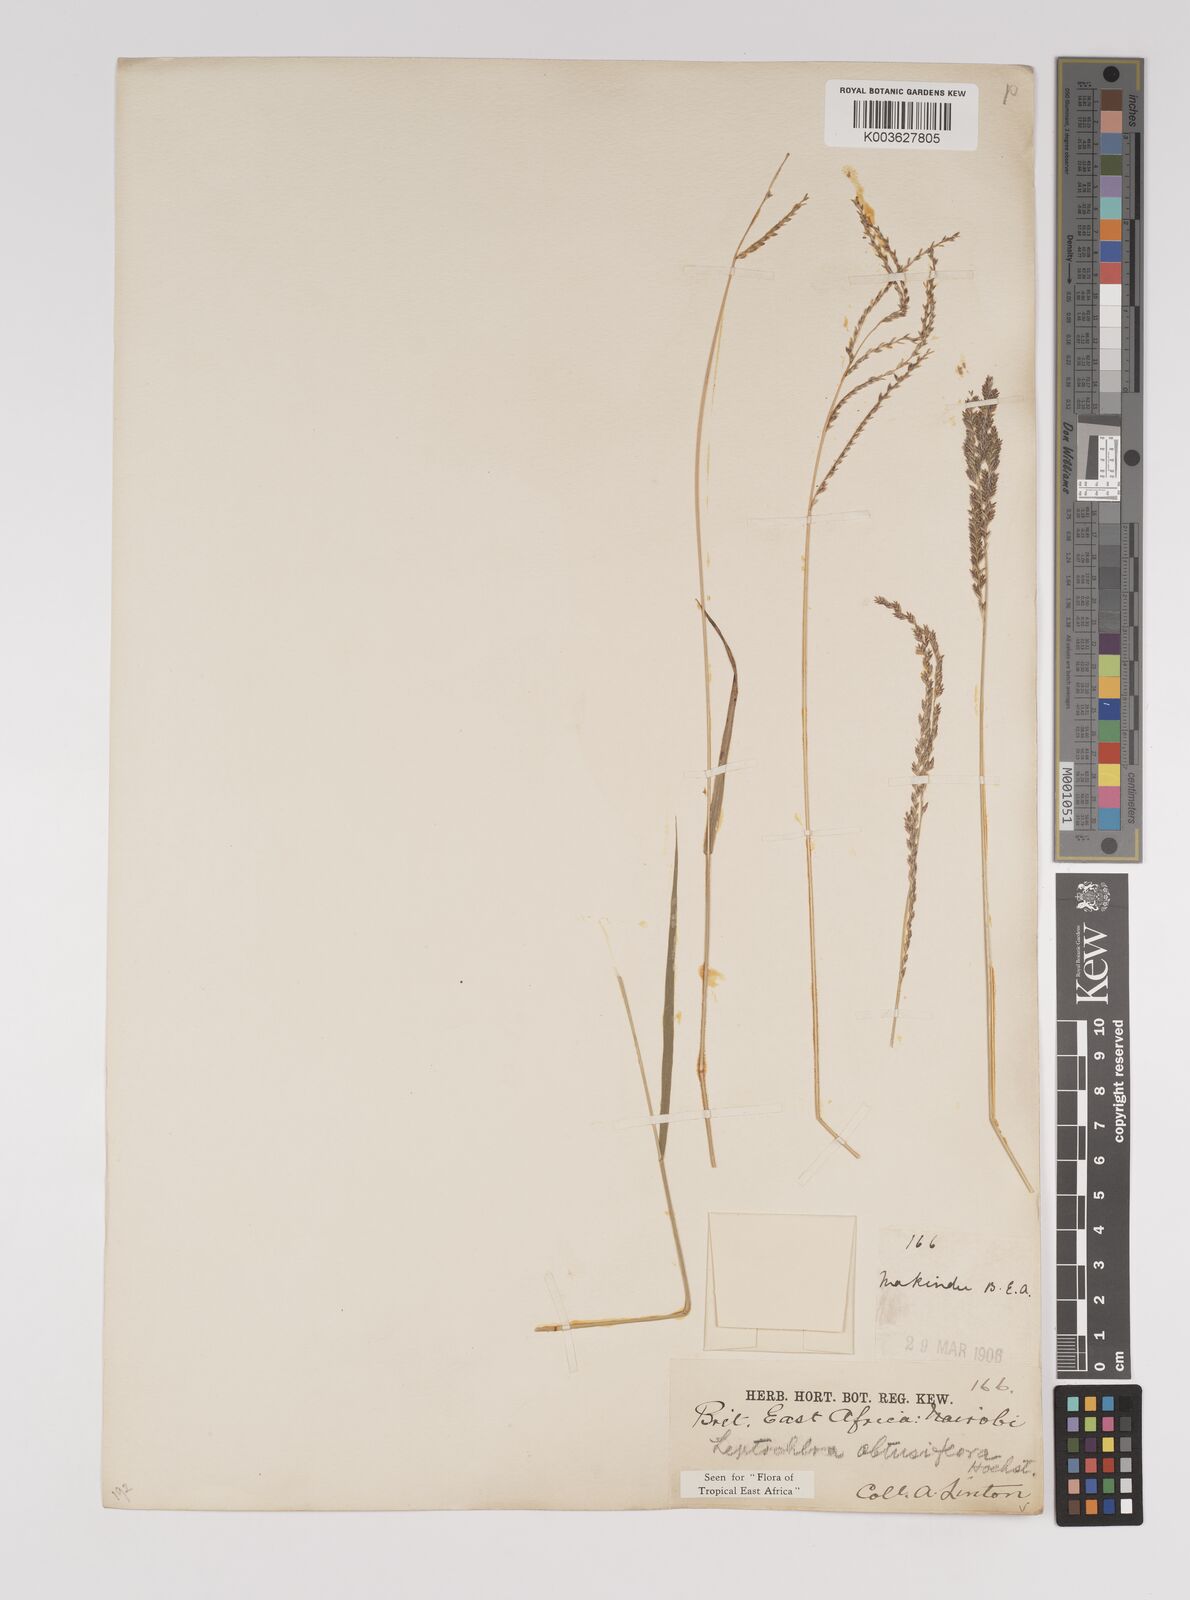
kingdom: Plantae
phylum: Tracheophyta
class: Liliopsida
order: Poales
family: Poaceae
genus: Disakisperma
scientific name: Disakisperma obtusiflorum
